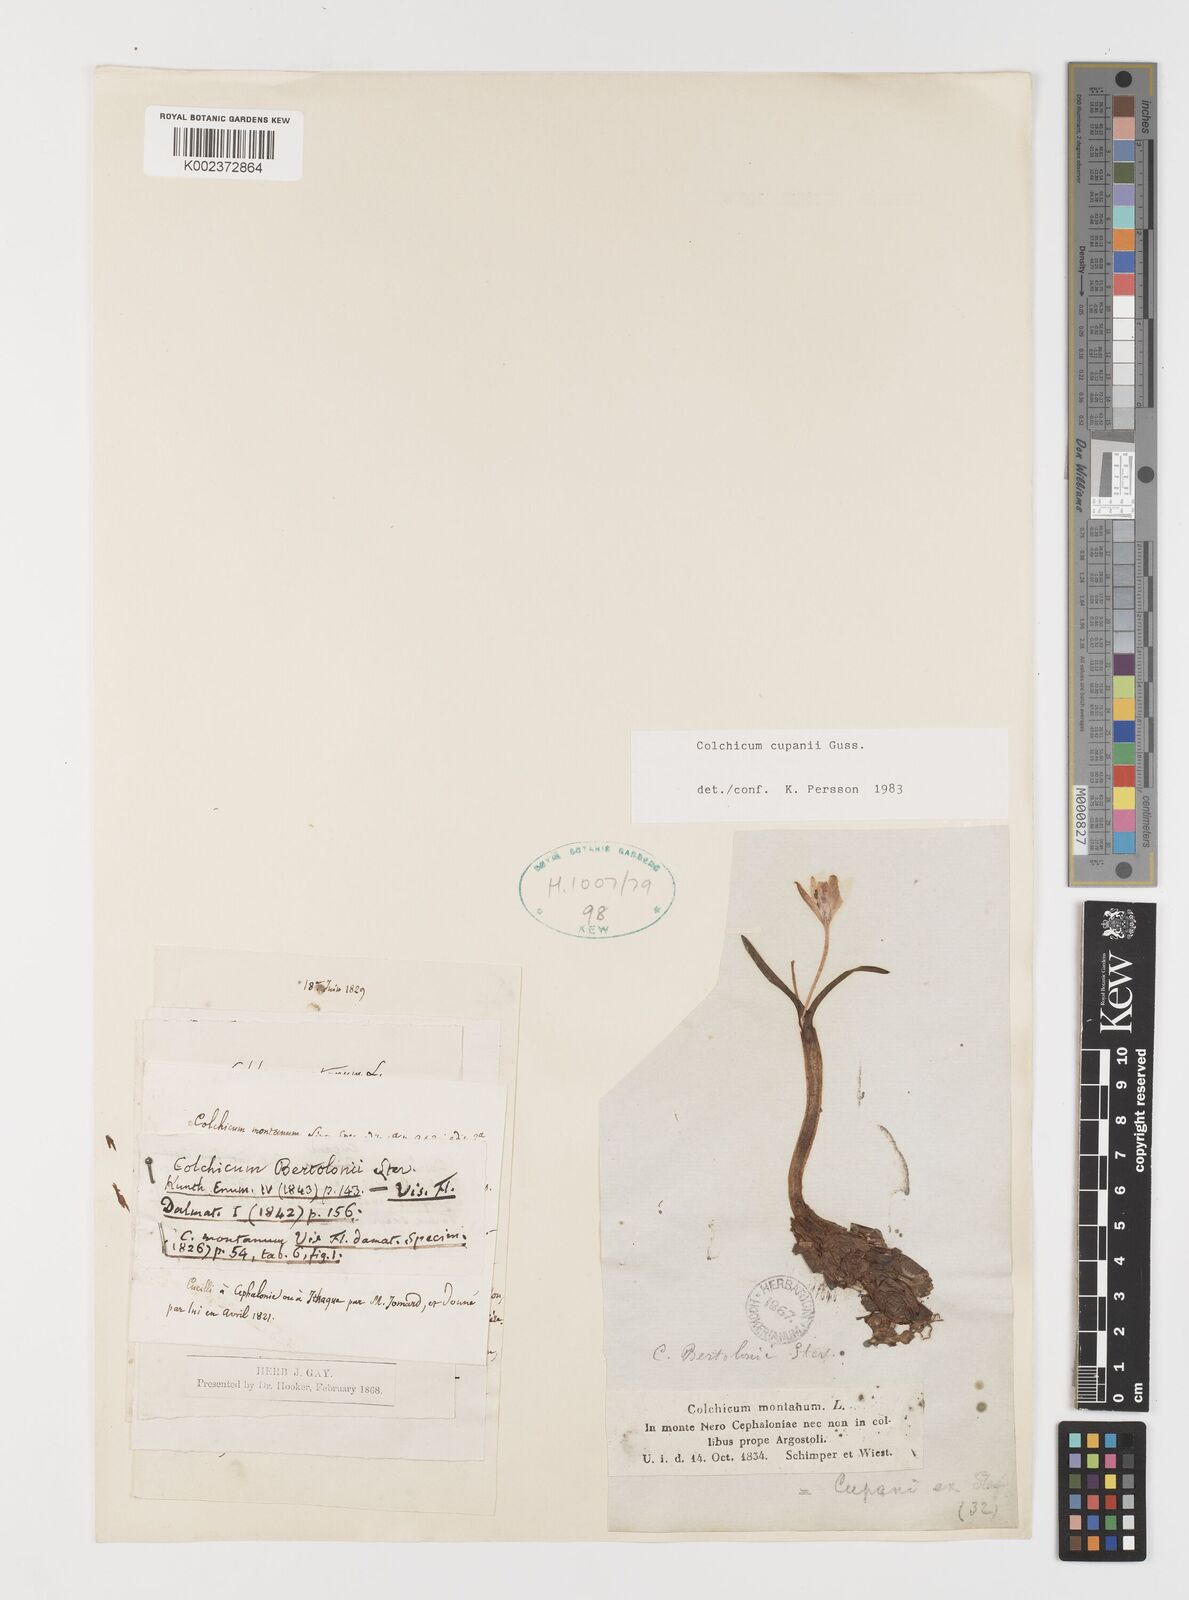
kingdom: Plantae
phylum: Tracheophyta
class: Liliopsida
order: Liliales
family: Colchicaceae
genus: Colchicum
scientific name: Colchicum cupanii
